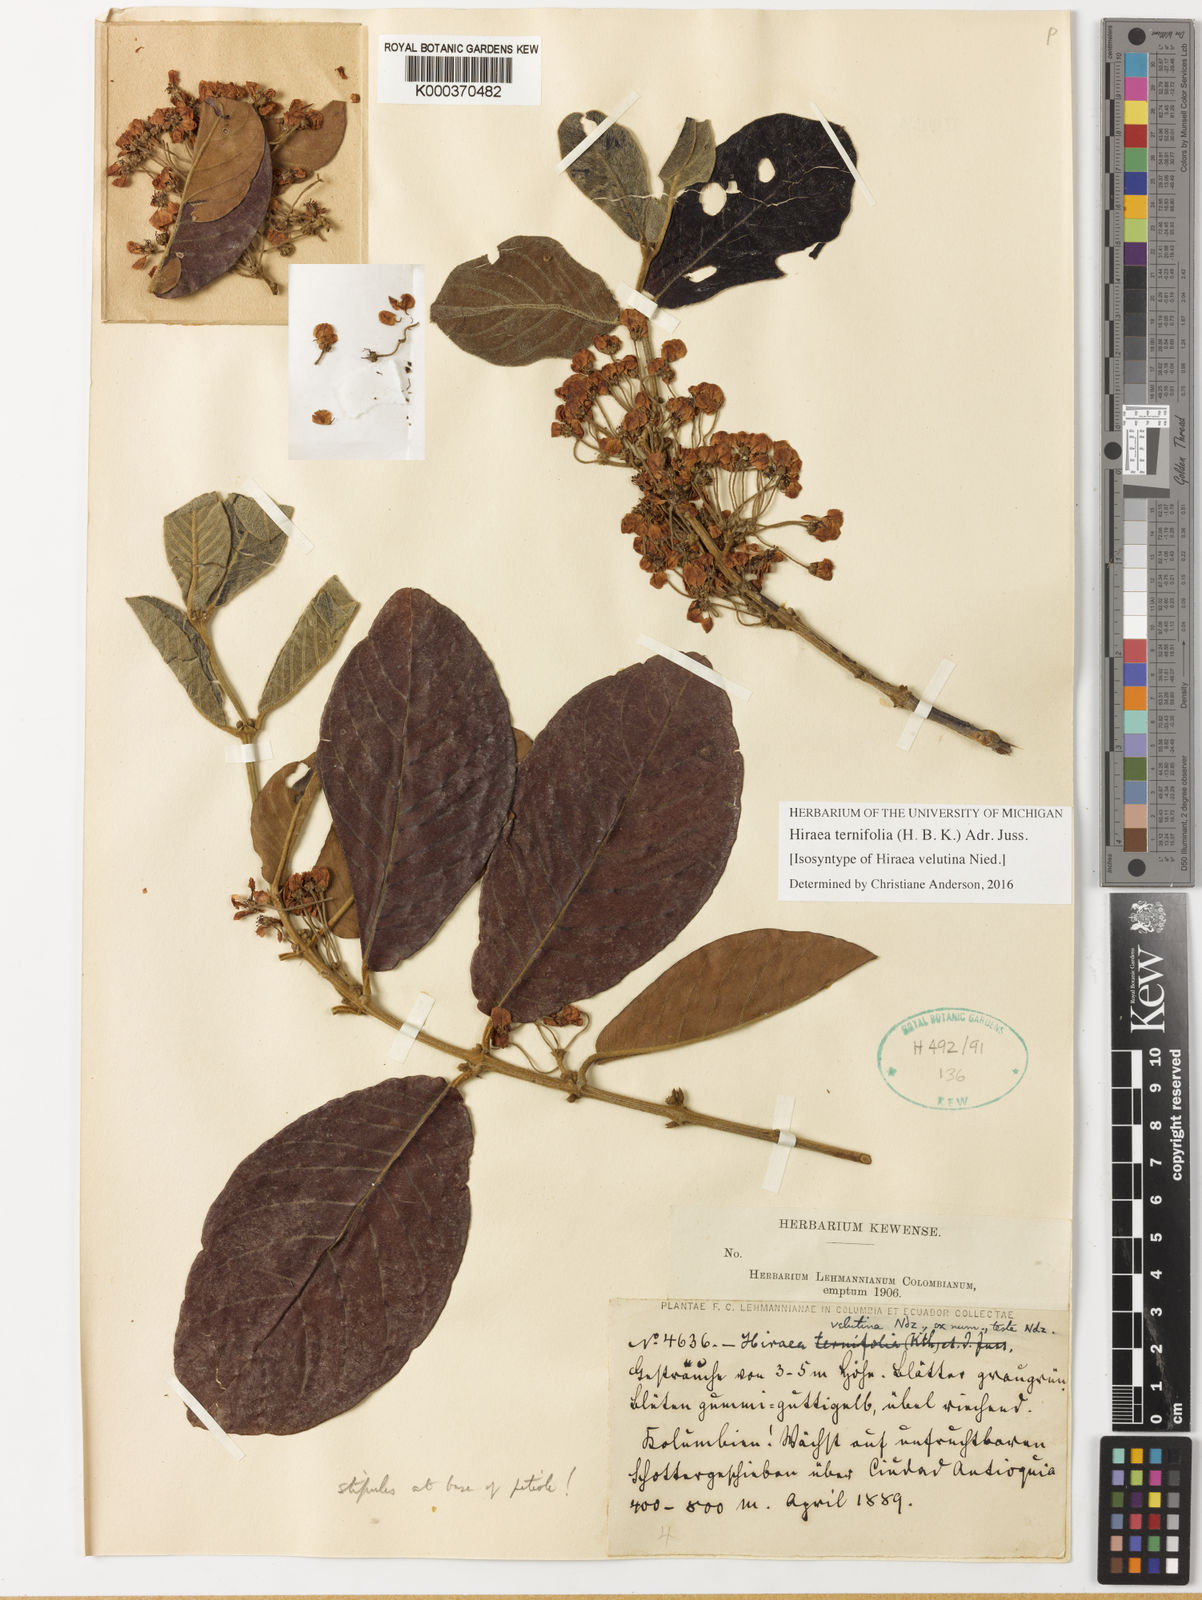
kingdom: Plantae
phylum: Tracheophyta
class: Magnoliopsida
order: Malpighiales
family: Malpighiaceae
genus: Hiraea
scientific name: Hiraea ternifolia
